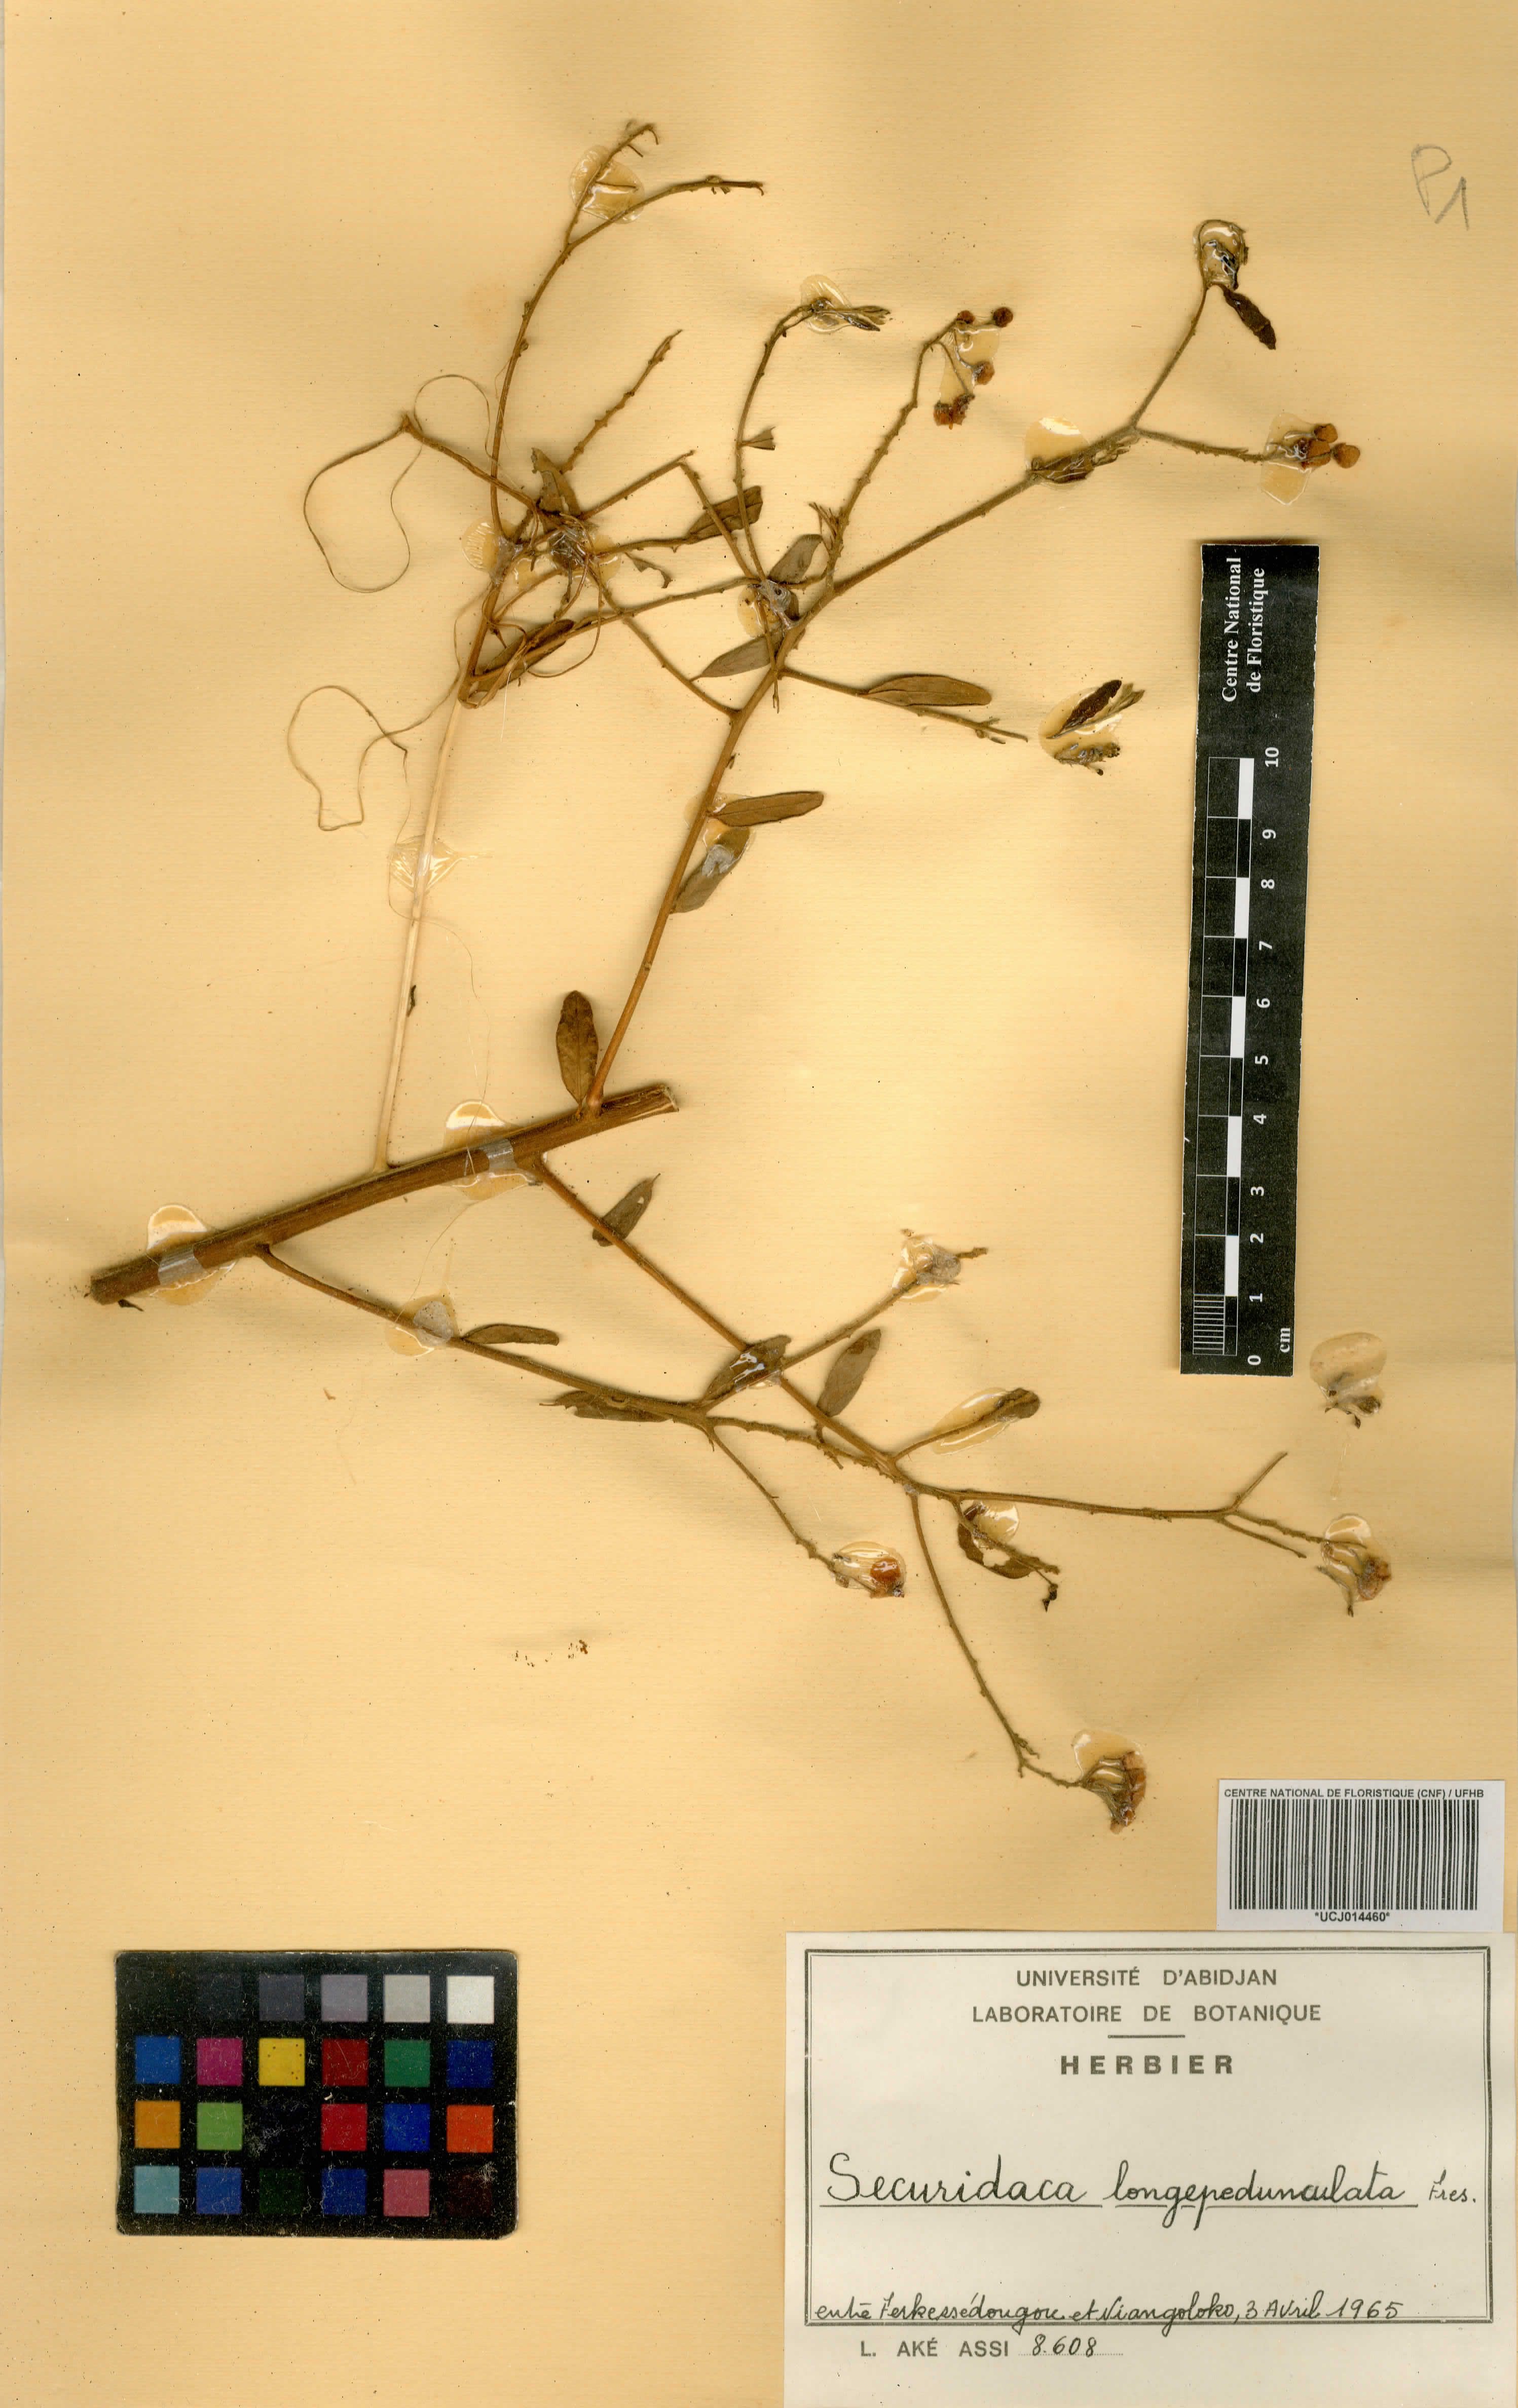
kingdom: Plantae
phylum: Tracheophyta
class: Magnoliopsida
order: Fabales
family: Polygalaceae
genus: Securidaca
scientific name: Securidaca longepedunculata
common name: Violet tree
